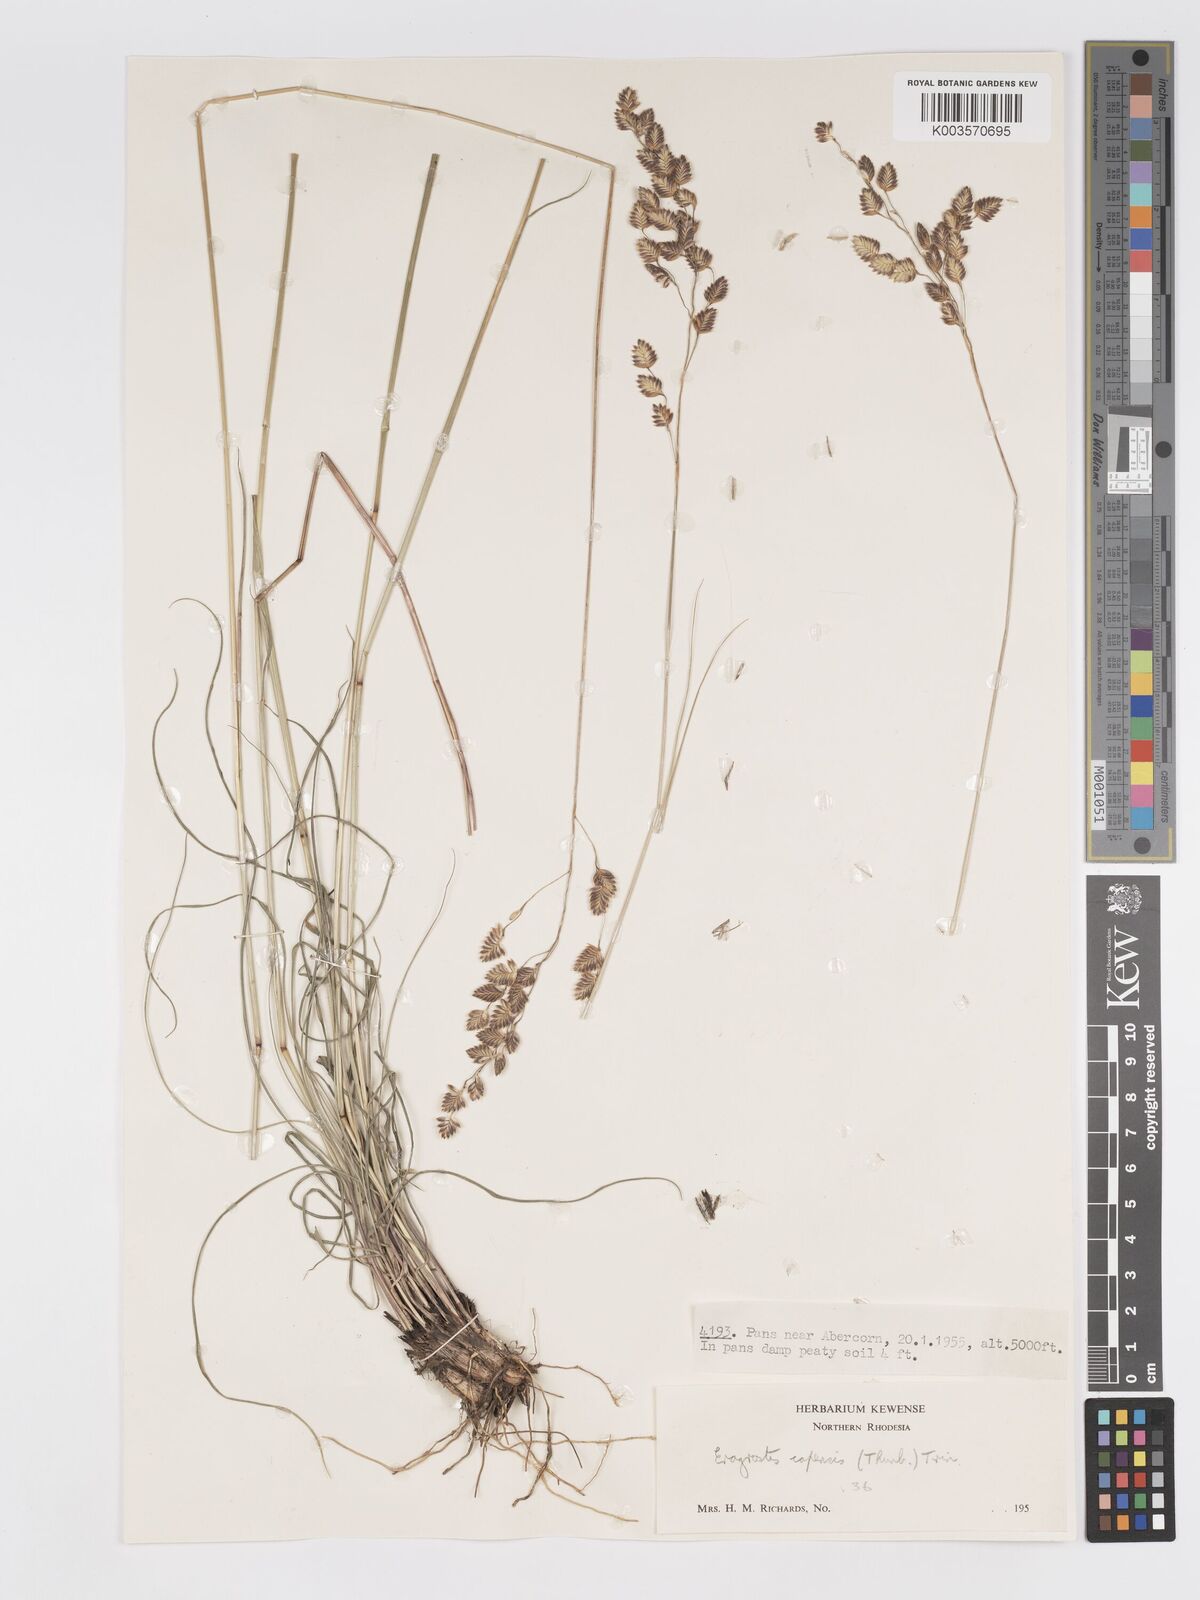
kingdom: Plantae
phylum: Tracheophyta
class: Liliopsida
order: Poales
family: Poaceae
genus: Eragrostis
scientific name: Eragrostis capensis
